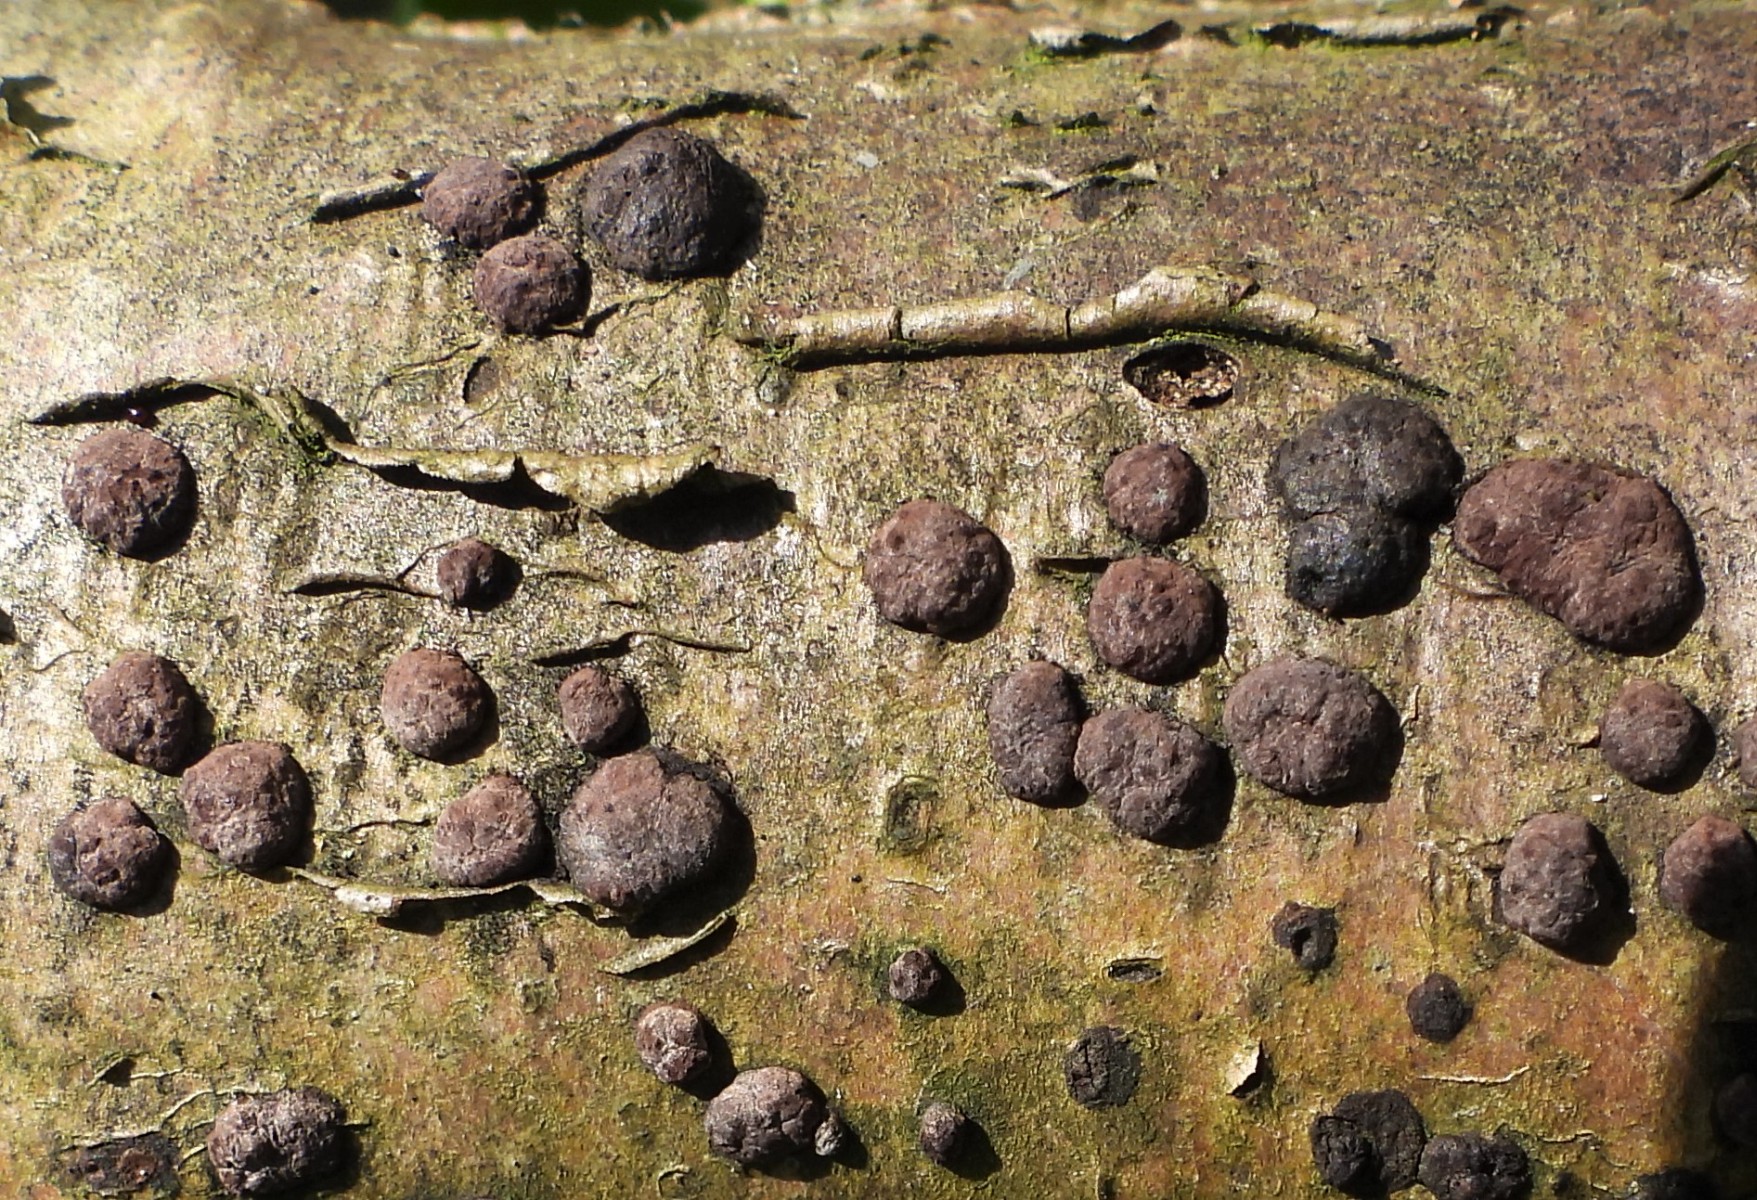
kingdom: Fungi
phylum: Ascomycota
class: Sordariomycetes
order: Xylariales
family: Hypoxylaceae
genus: Hypoxylon
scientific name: Hypoxylon fuscum
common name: kegleformet kulbær
